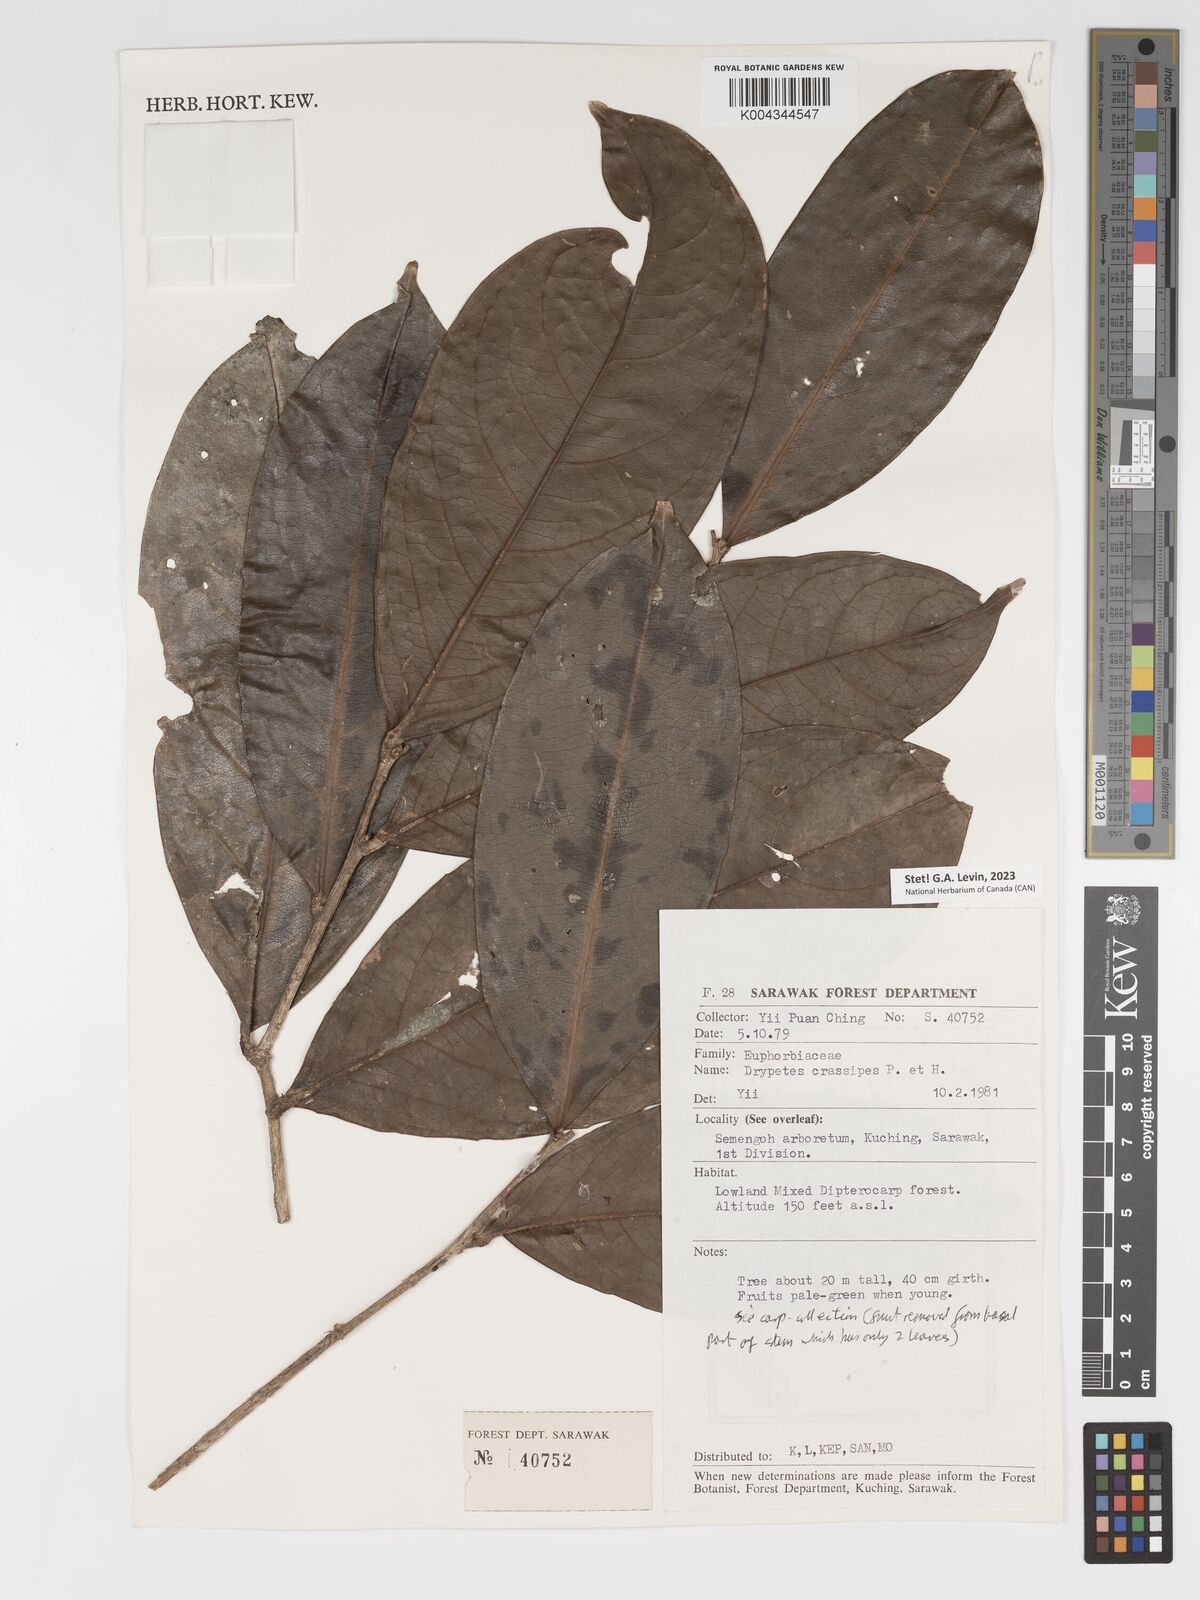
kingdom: Plantae
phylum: Tracheophyta
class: Magnoliopsida
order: Malpighiales
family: Putranjivaceae
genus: Drypetes
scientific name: Drypetes crassipes
